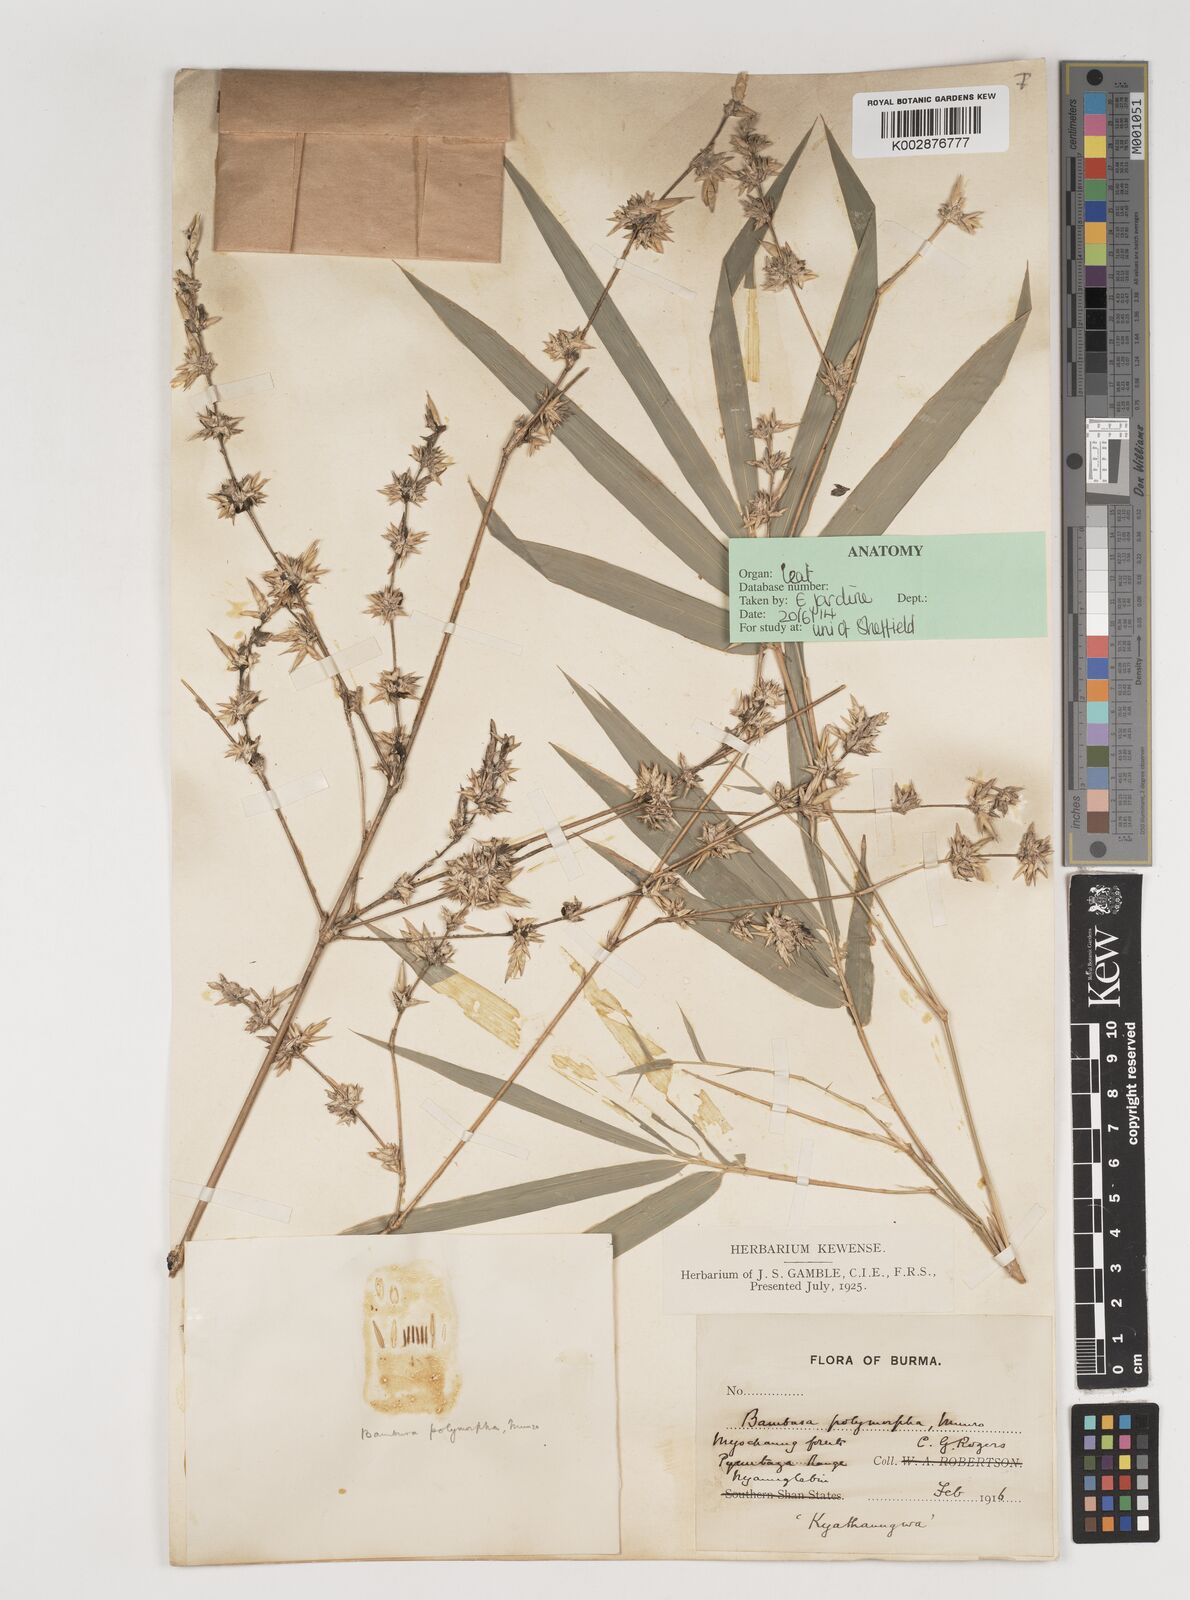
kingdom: Plantae
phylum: Tracheophyta
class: Liliopsida
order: Poales
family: Poaceae
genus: Bambusa
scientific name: Bambusa polymorpha
